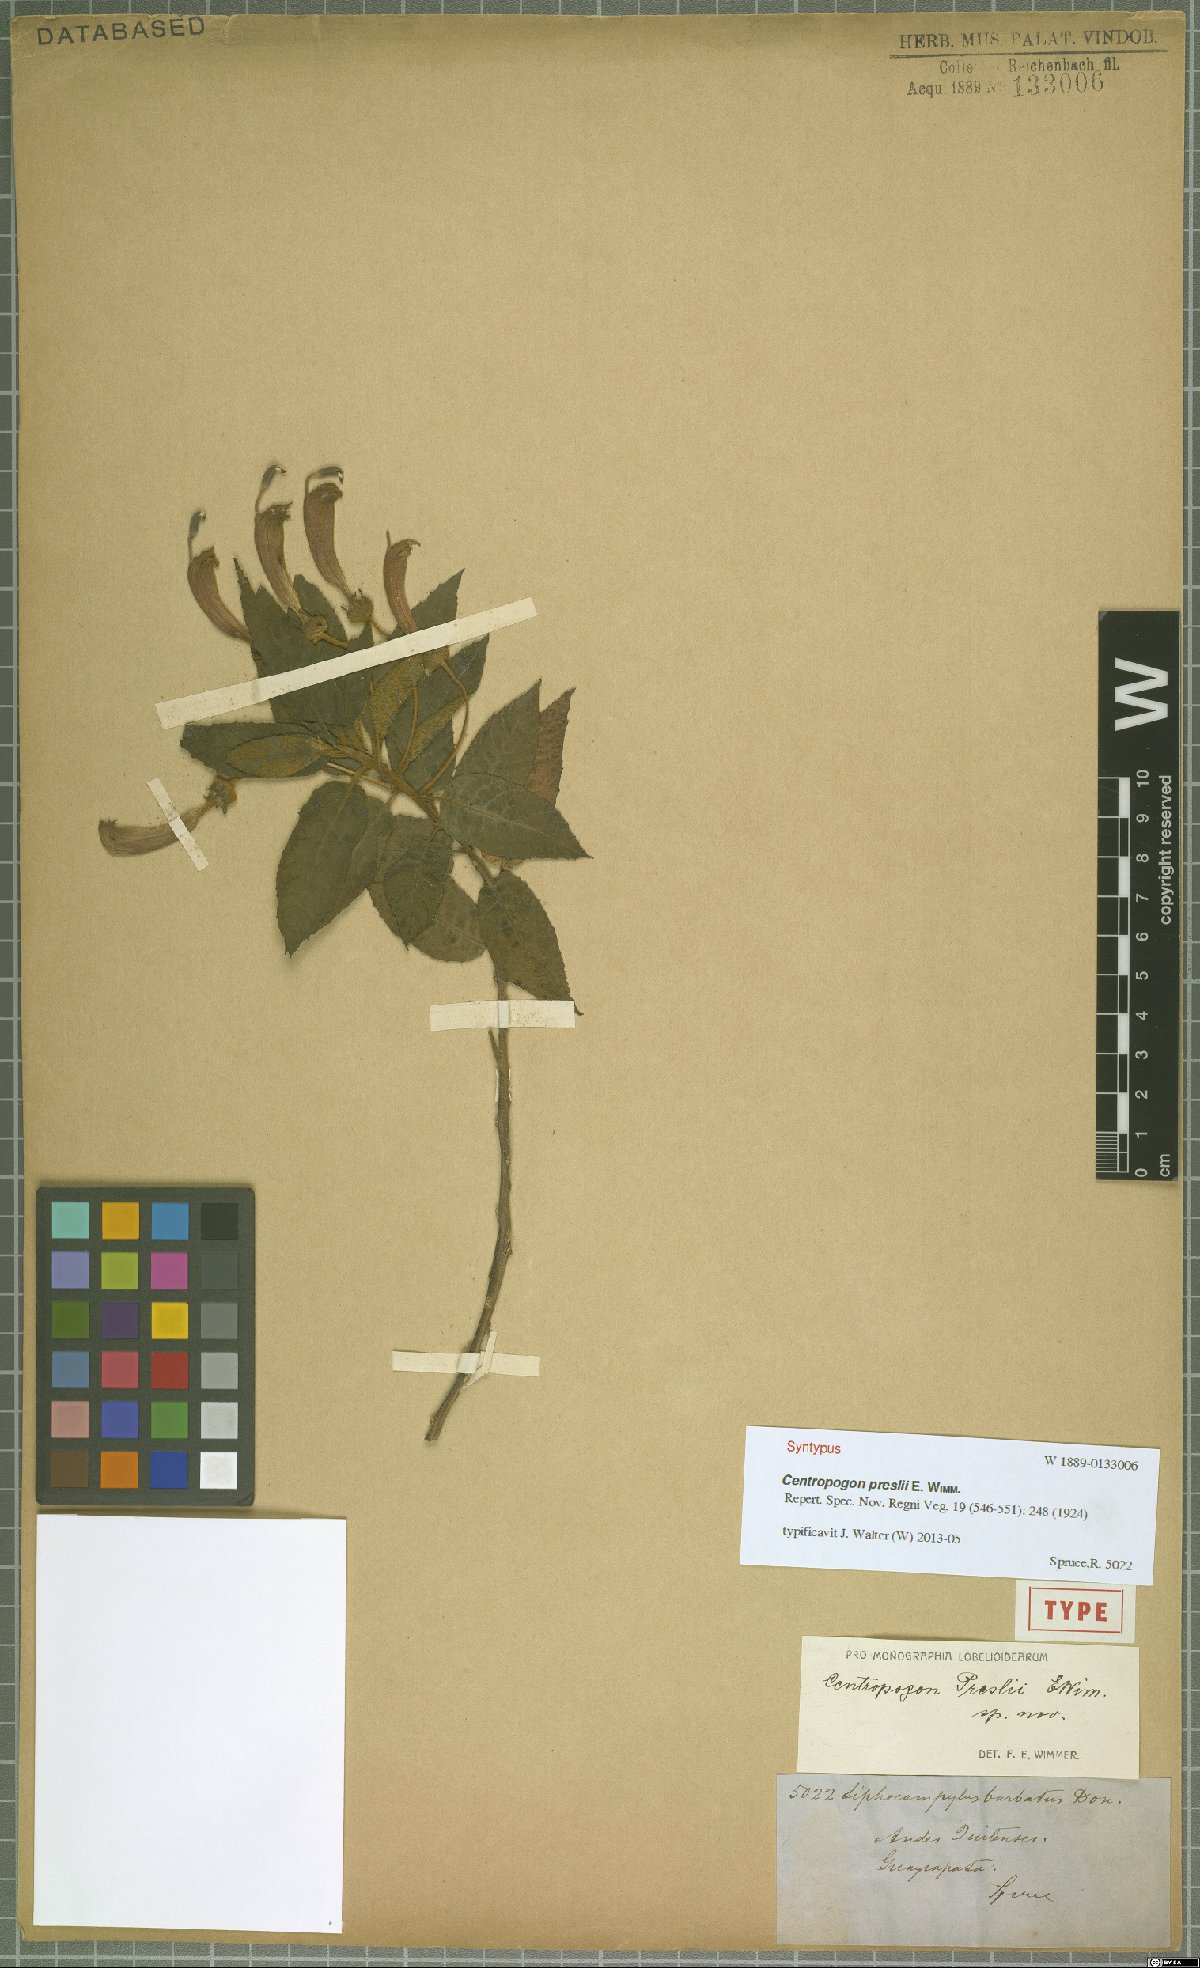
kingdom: Plantae
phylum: Tracheophyta
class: Magnoliopsida
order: Asterales
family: Campanulaceae
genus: Centropogon
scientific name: Centropogon preslii
